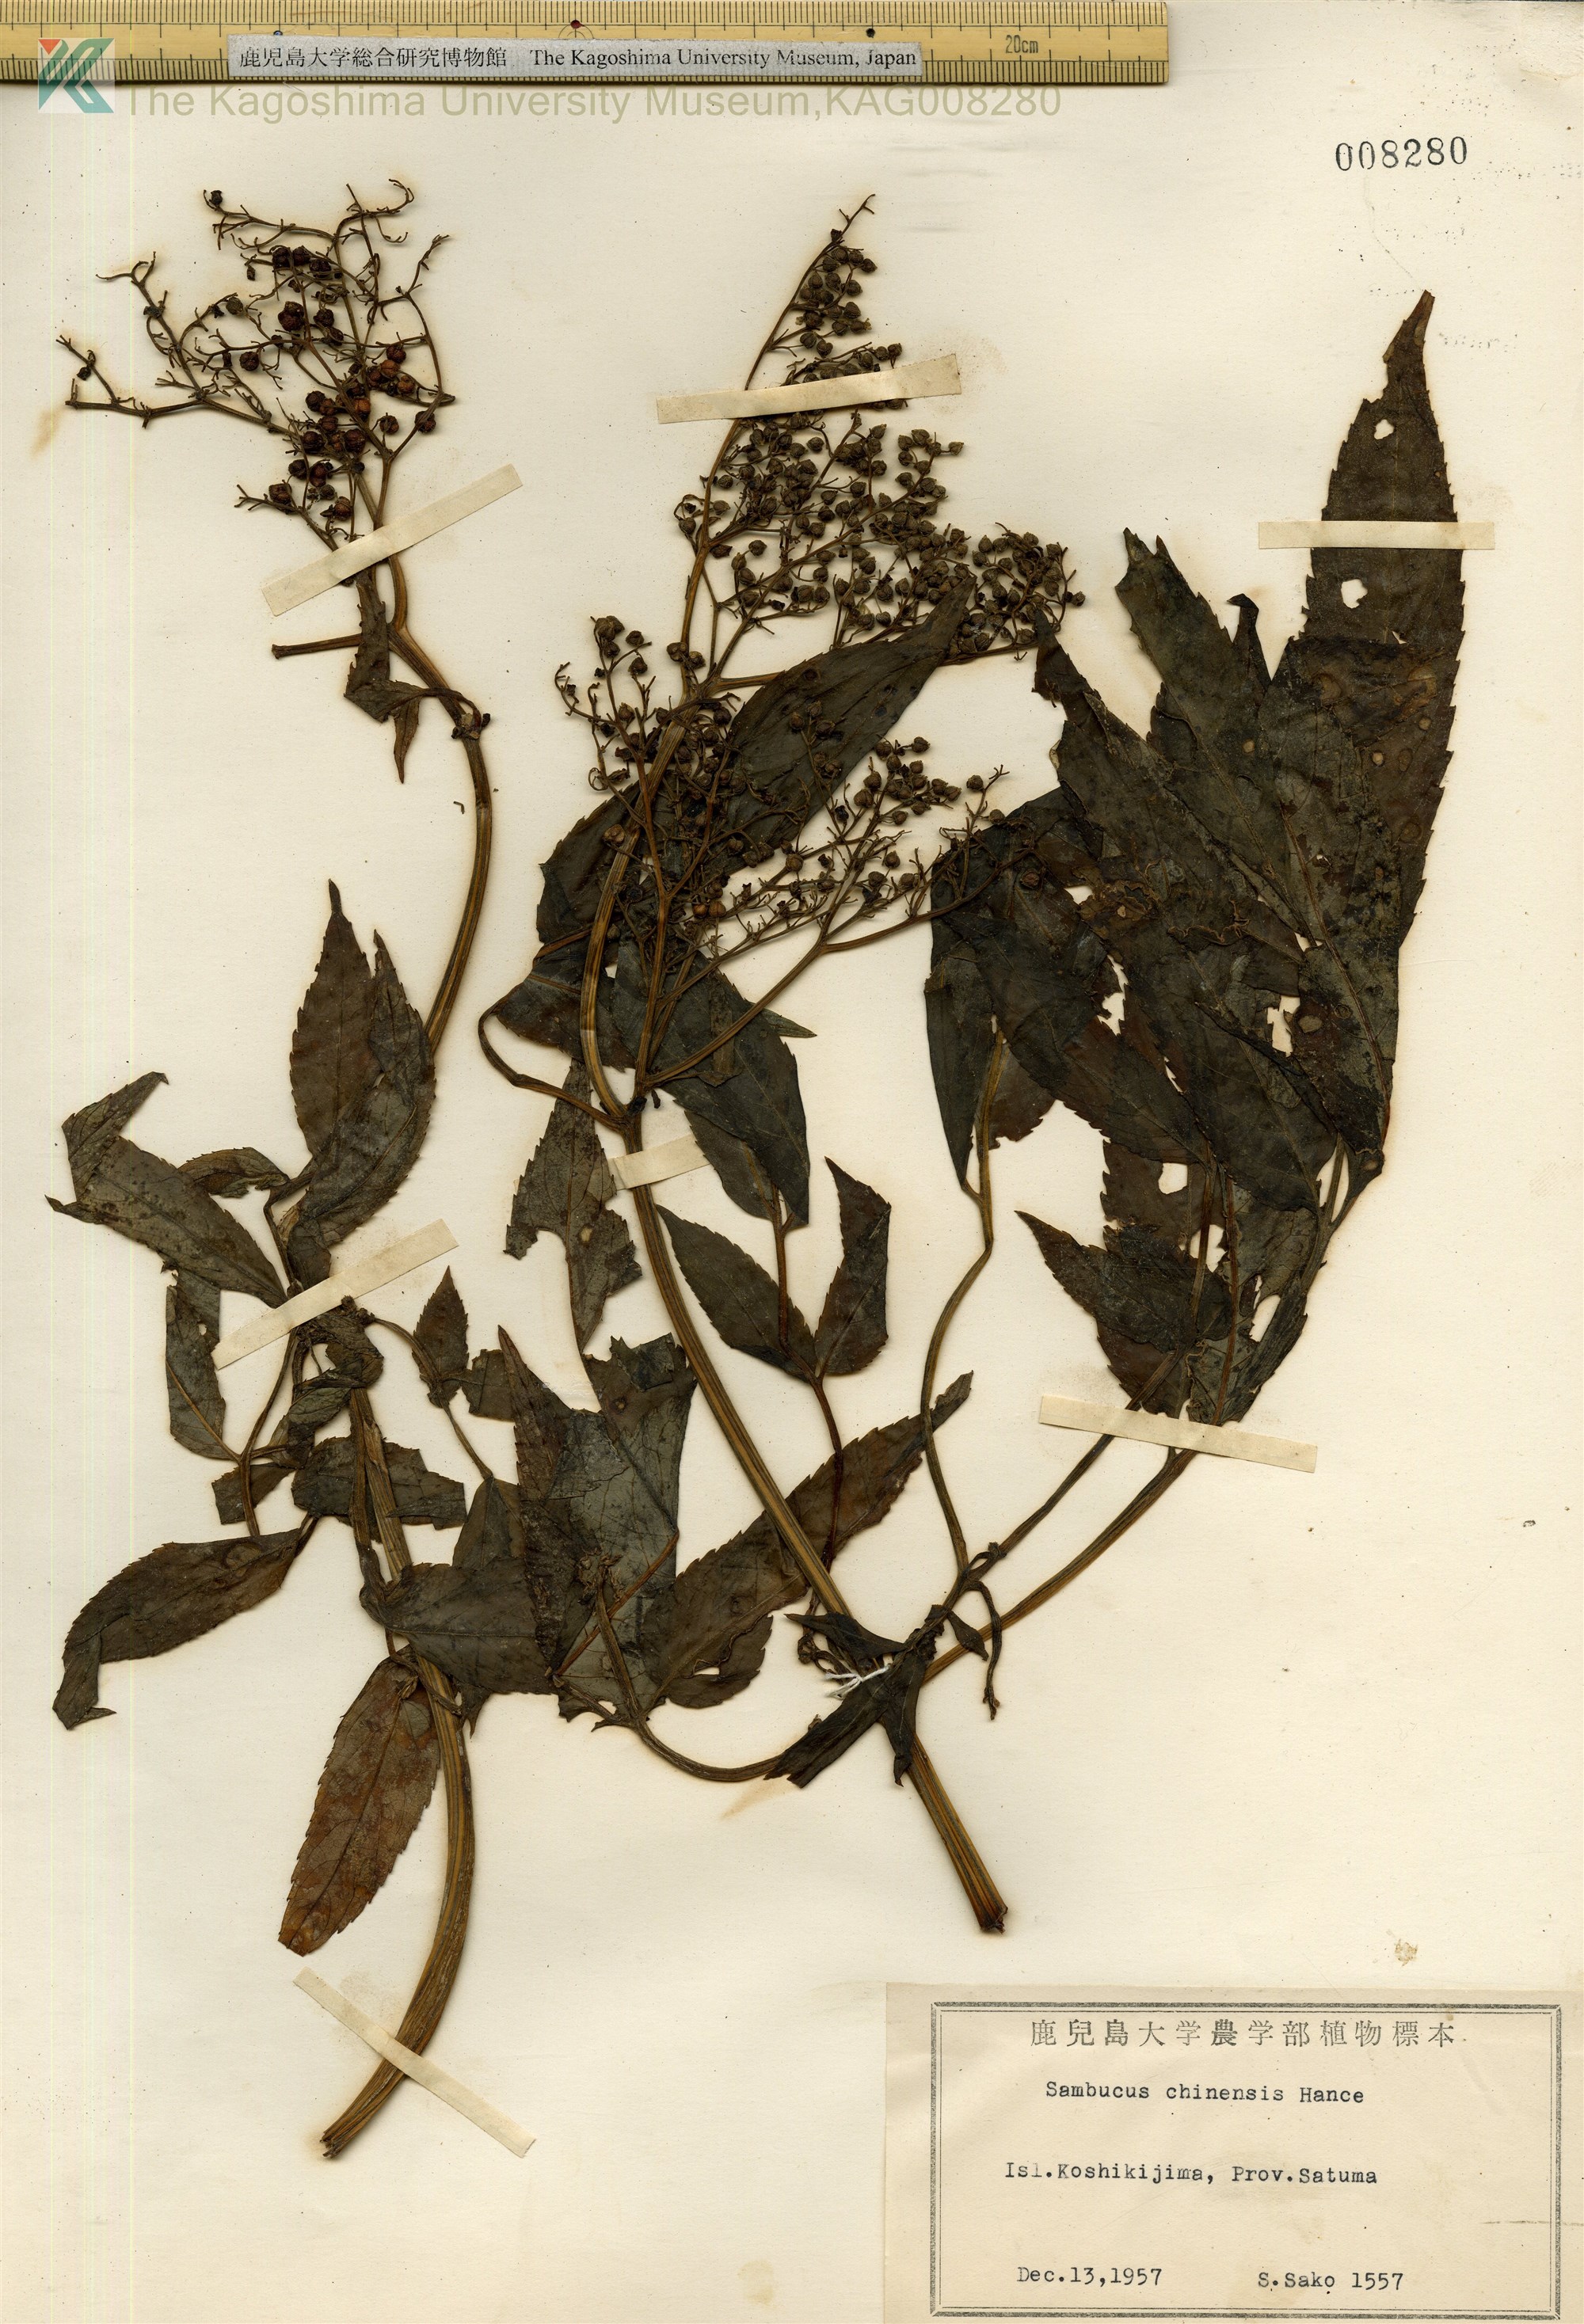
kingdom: Plantae
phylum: Tracheophyta
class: Magnoliopsida
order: Dipsacales
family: Viburnaceae
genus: Sambucus
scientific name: Sambucus javanica
